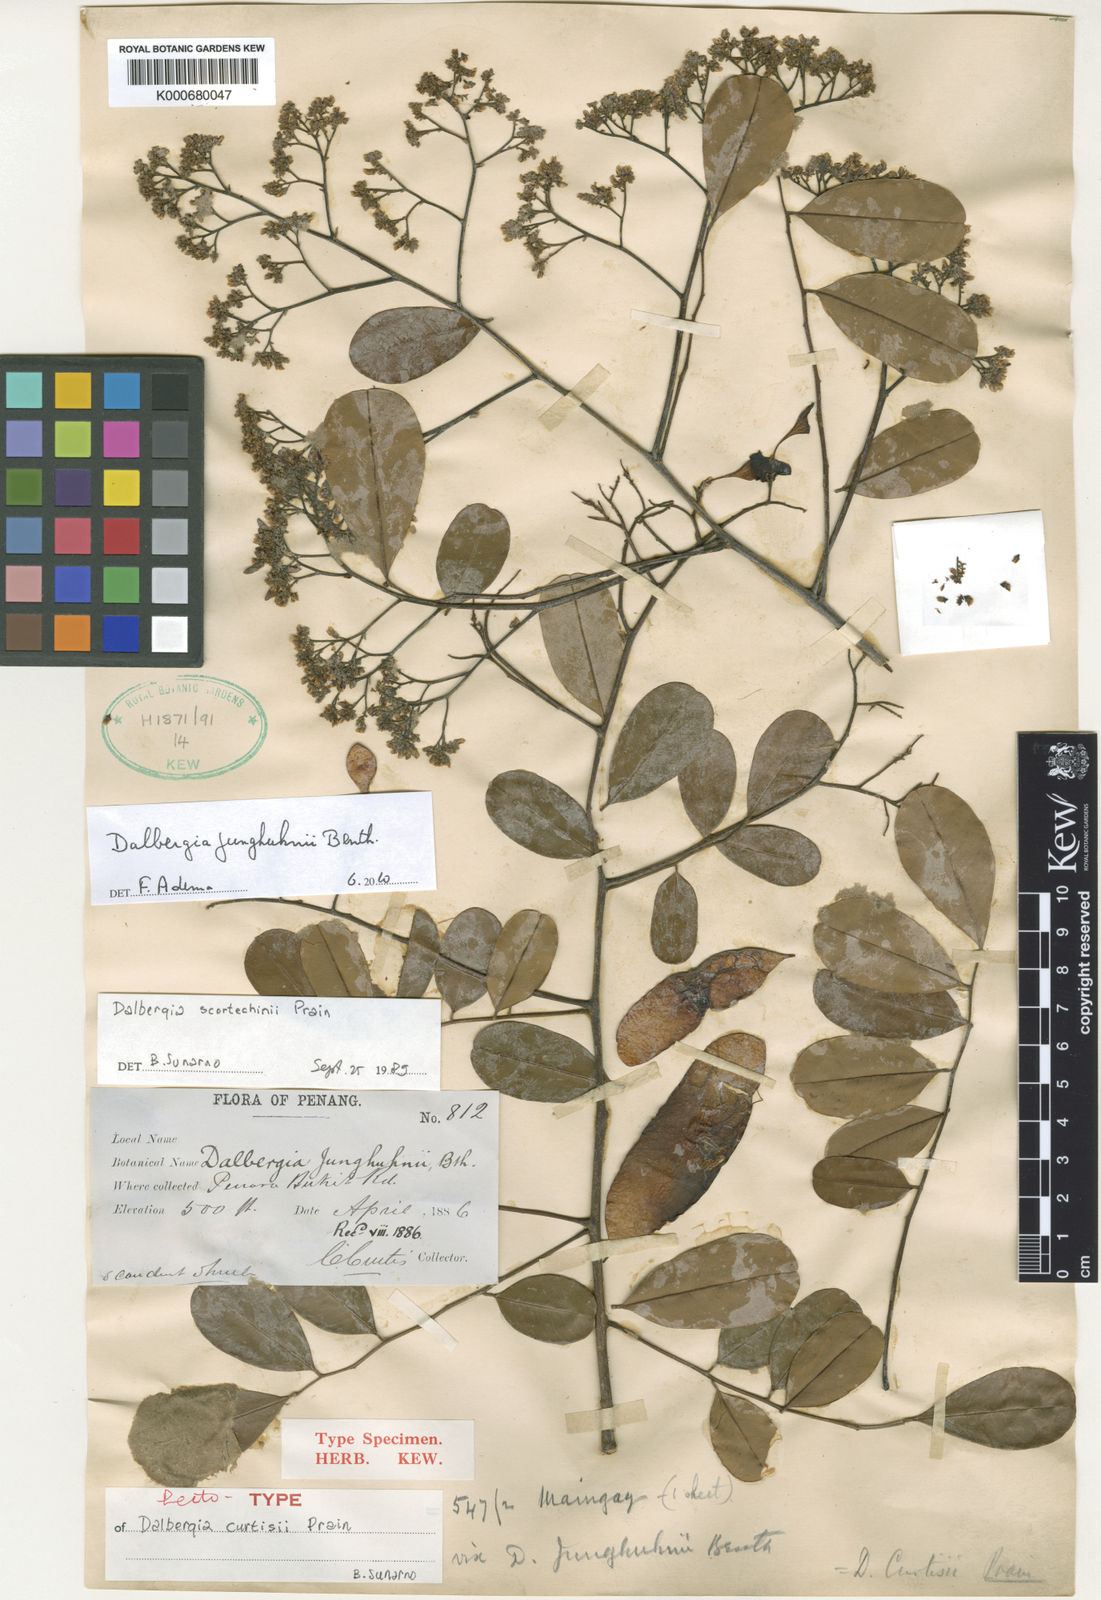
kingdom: Plantae
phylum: Tracheophyta
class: Magnoliopsida
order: Fabales
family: Fabaceae
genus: Dalbergia
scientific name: Dalbergia junghuhnii
